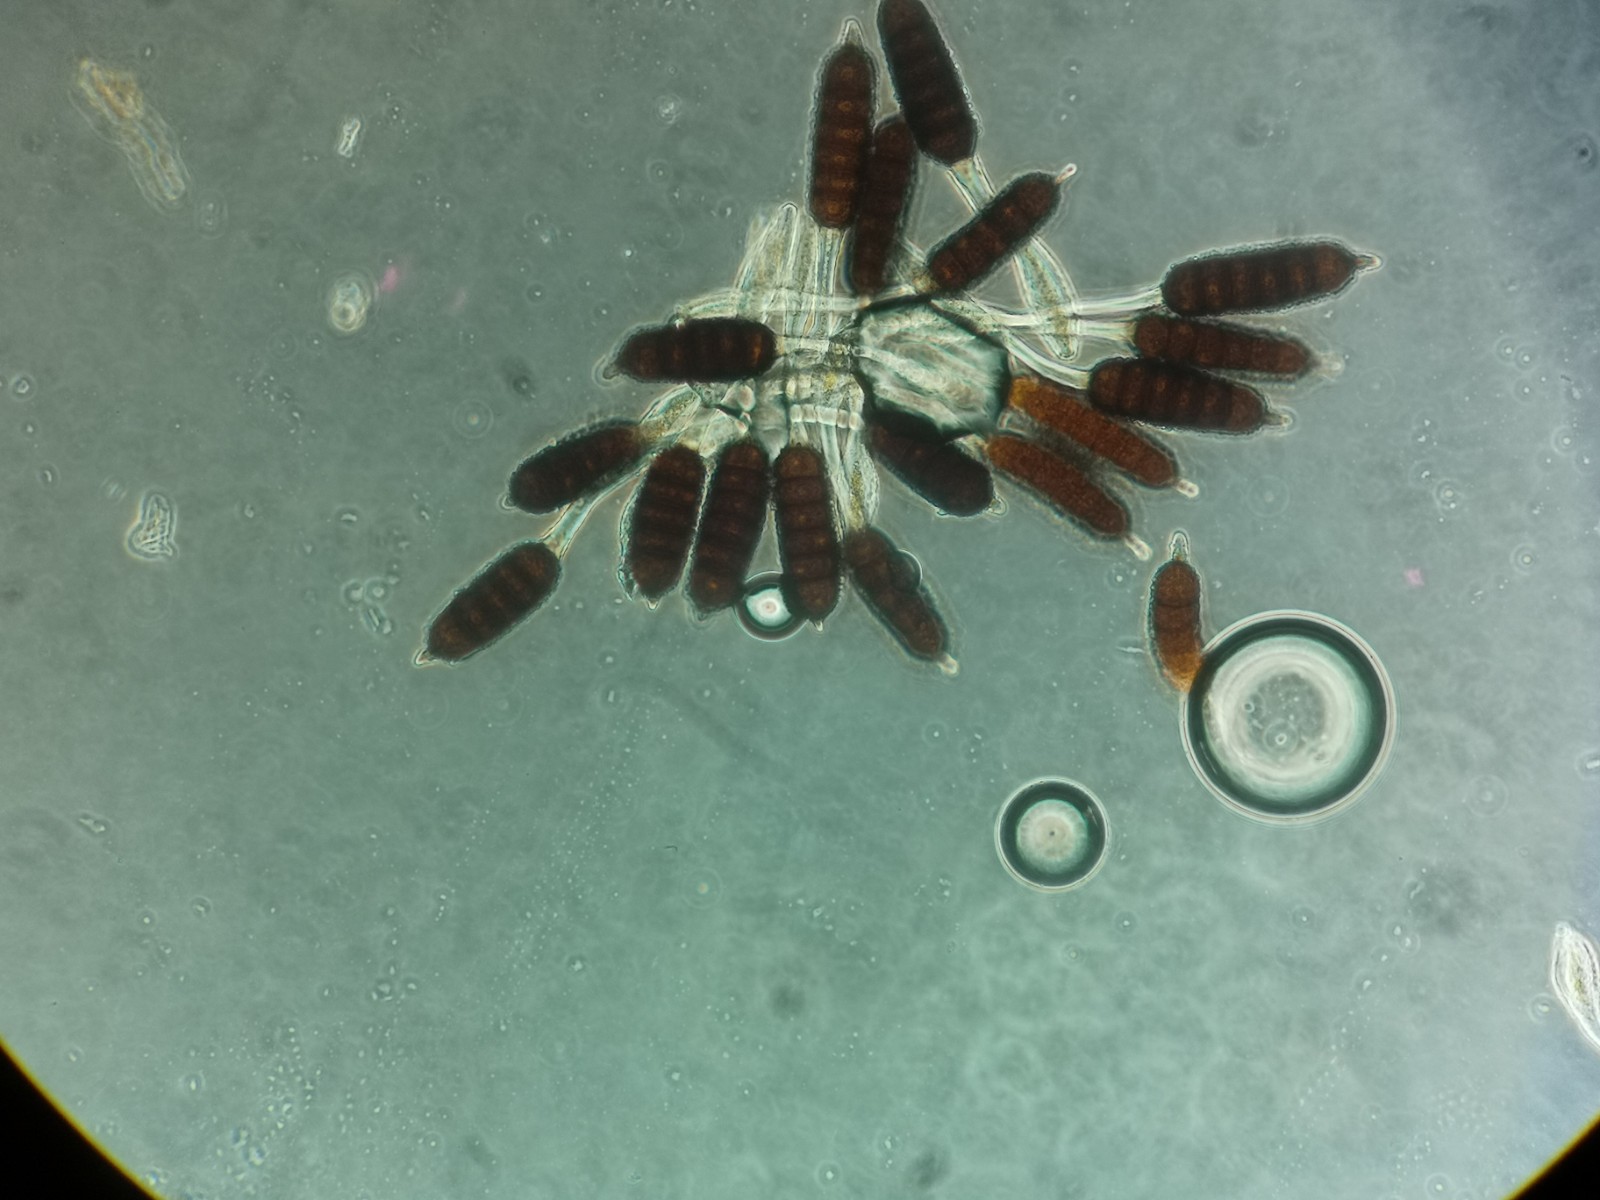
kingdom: Fungi
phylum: Basidiomycota
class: Pucciniomycetes
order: Pucciniales
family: Phragmidiaceae
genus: Phragmidium
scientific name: Phragmidium bulbosum
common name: brombær-flercellerust
